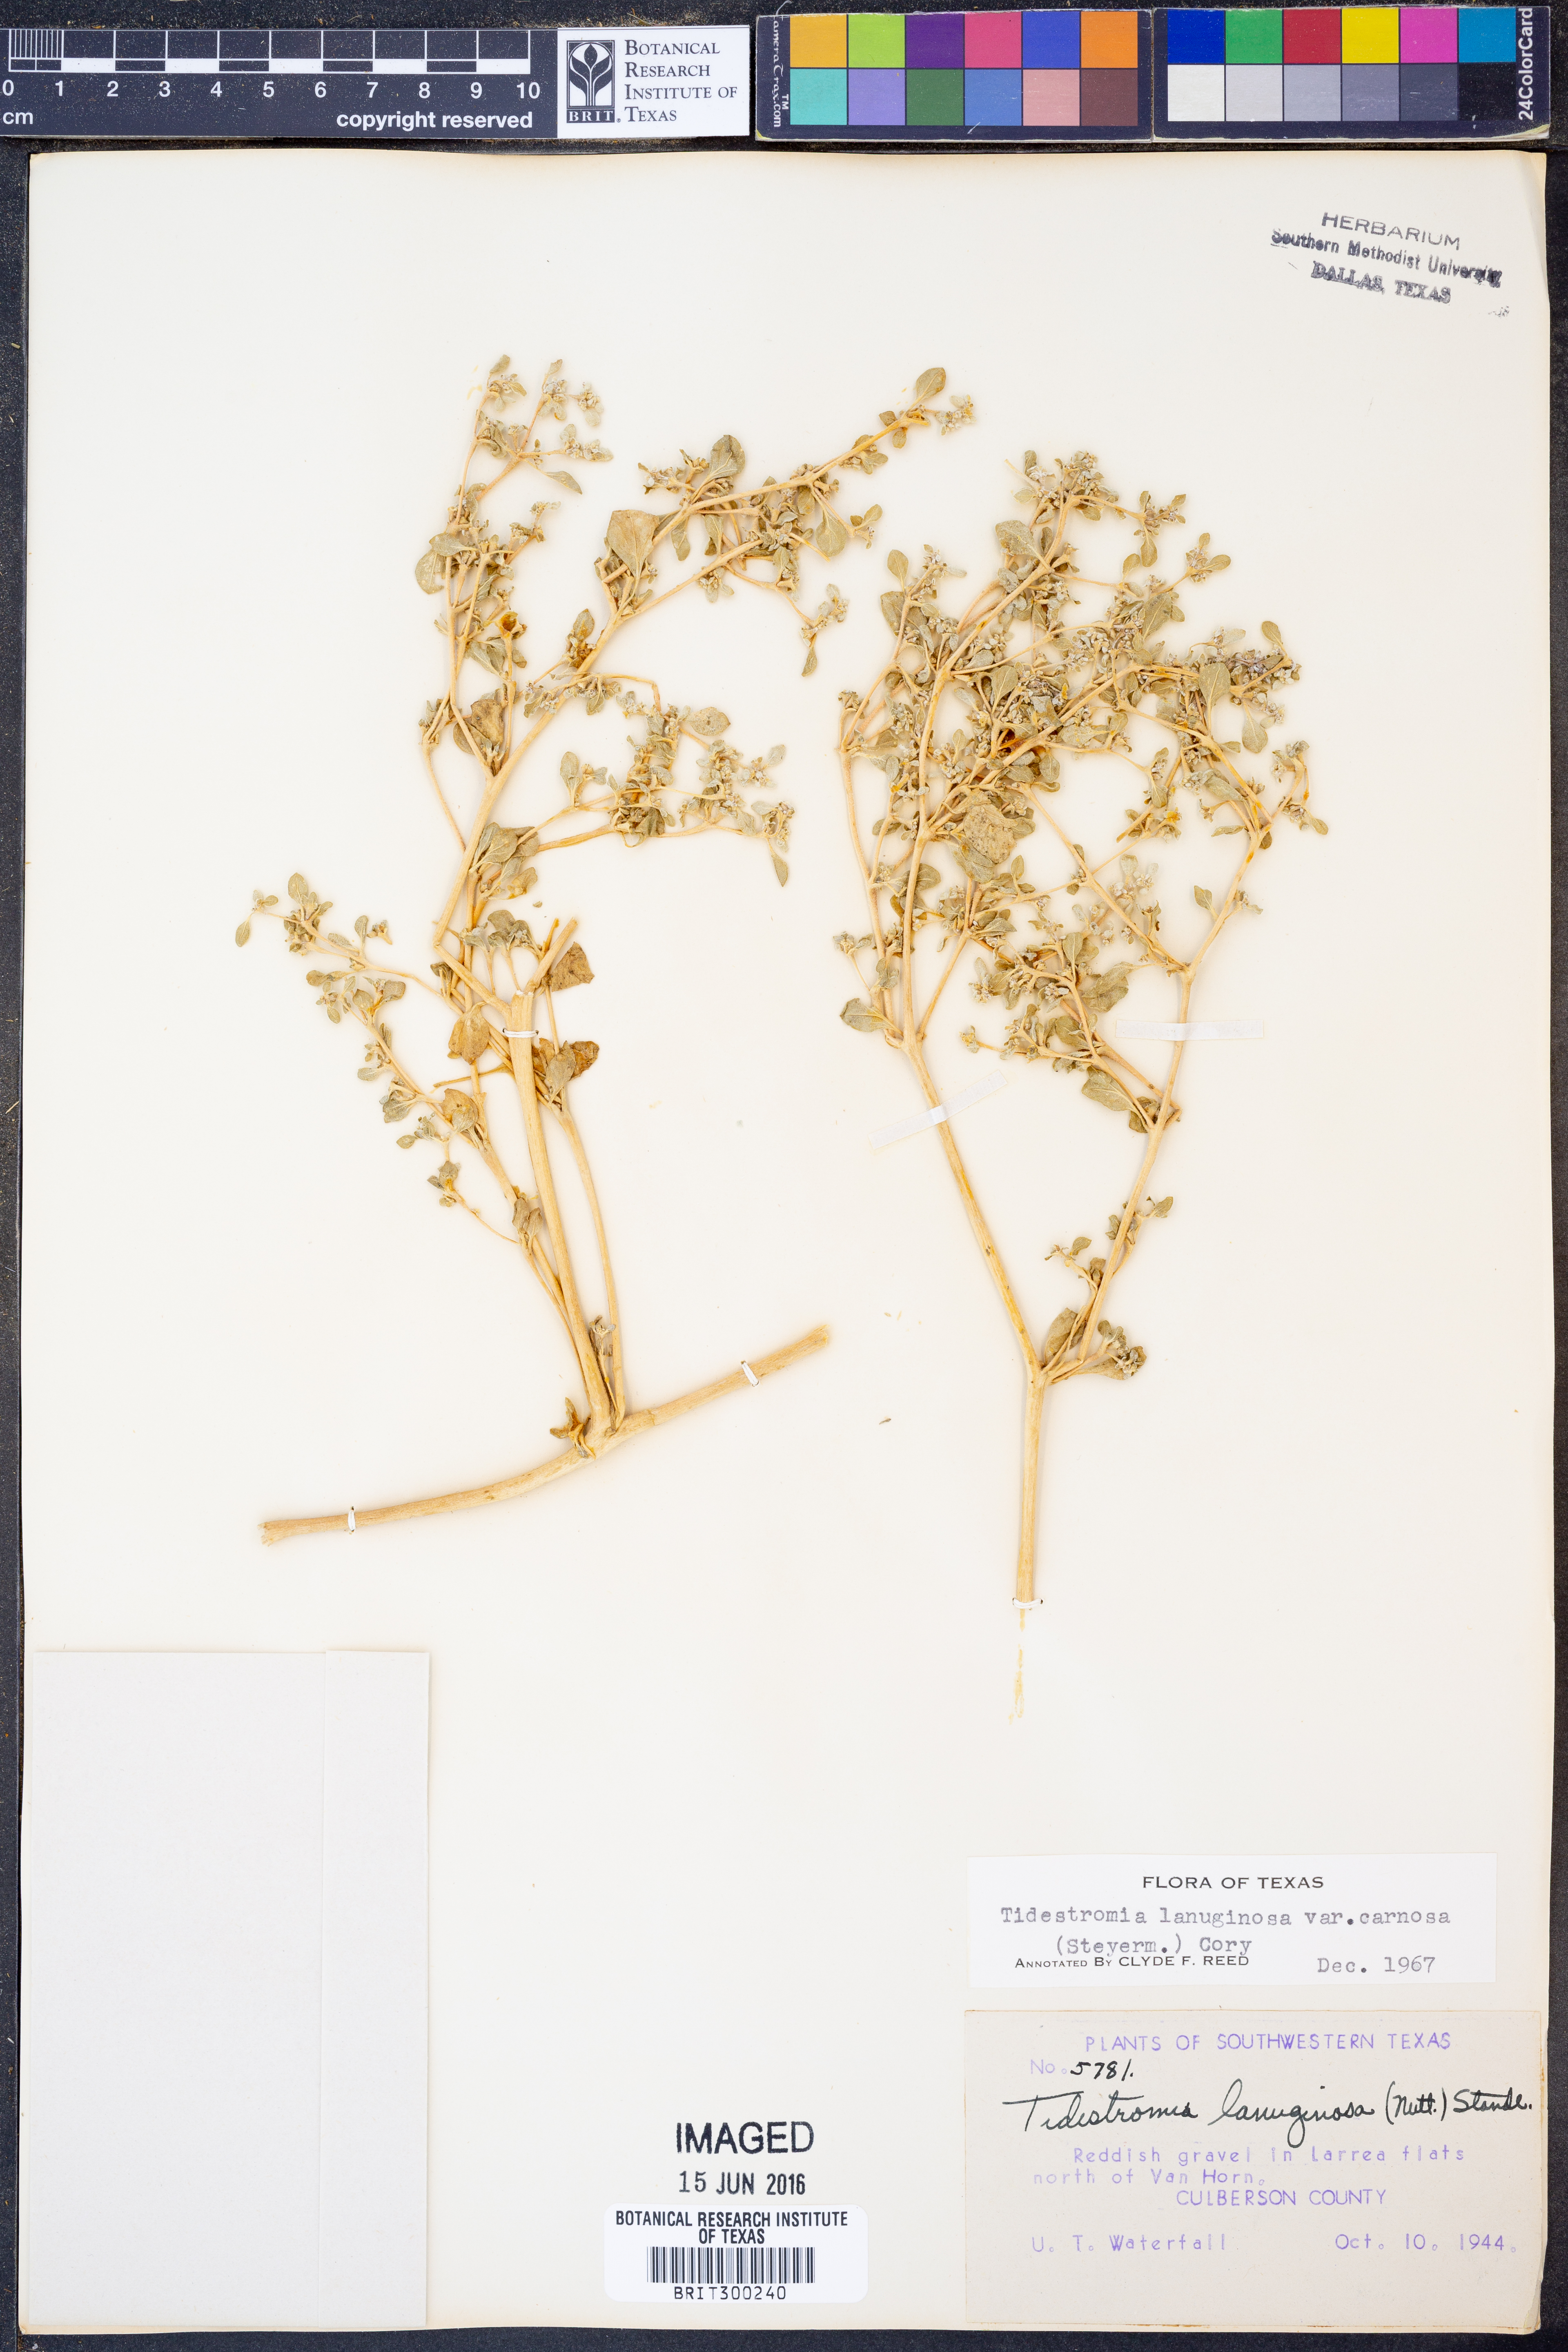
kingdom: Plantae
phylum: Tracheophyta
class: Magnoliopsida
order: Caryophyllales
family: Amaranthaceae
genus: Tidestromia
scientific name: Tidestromia carnosa
